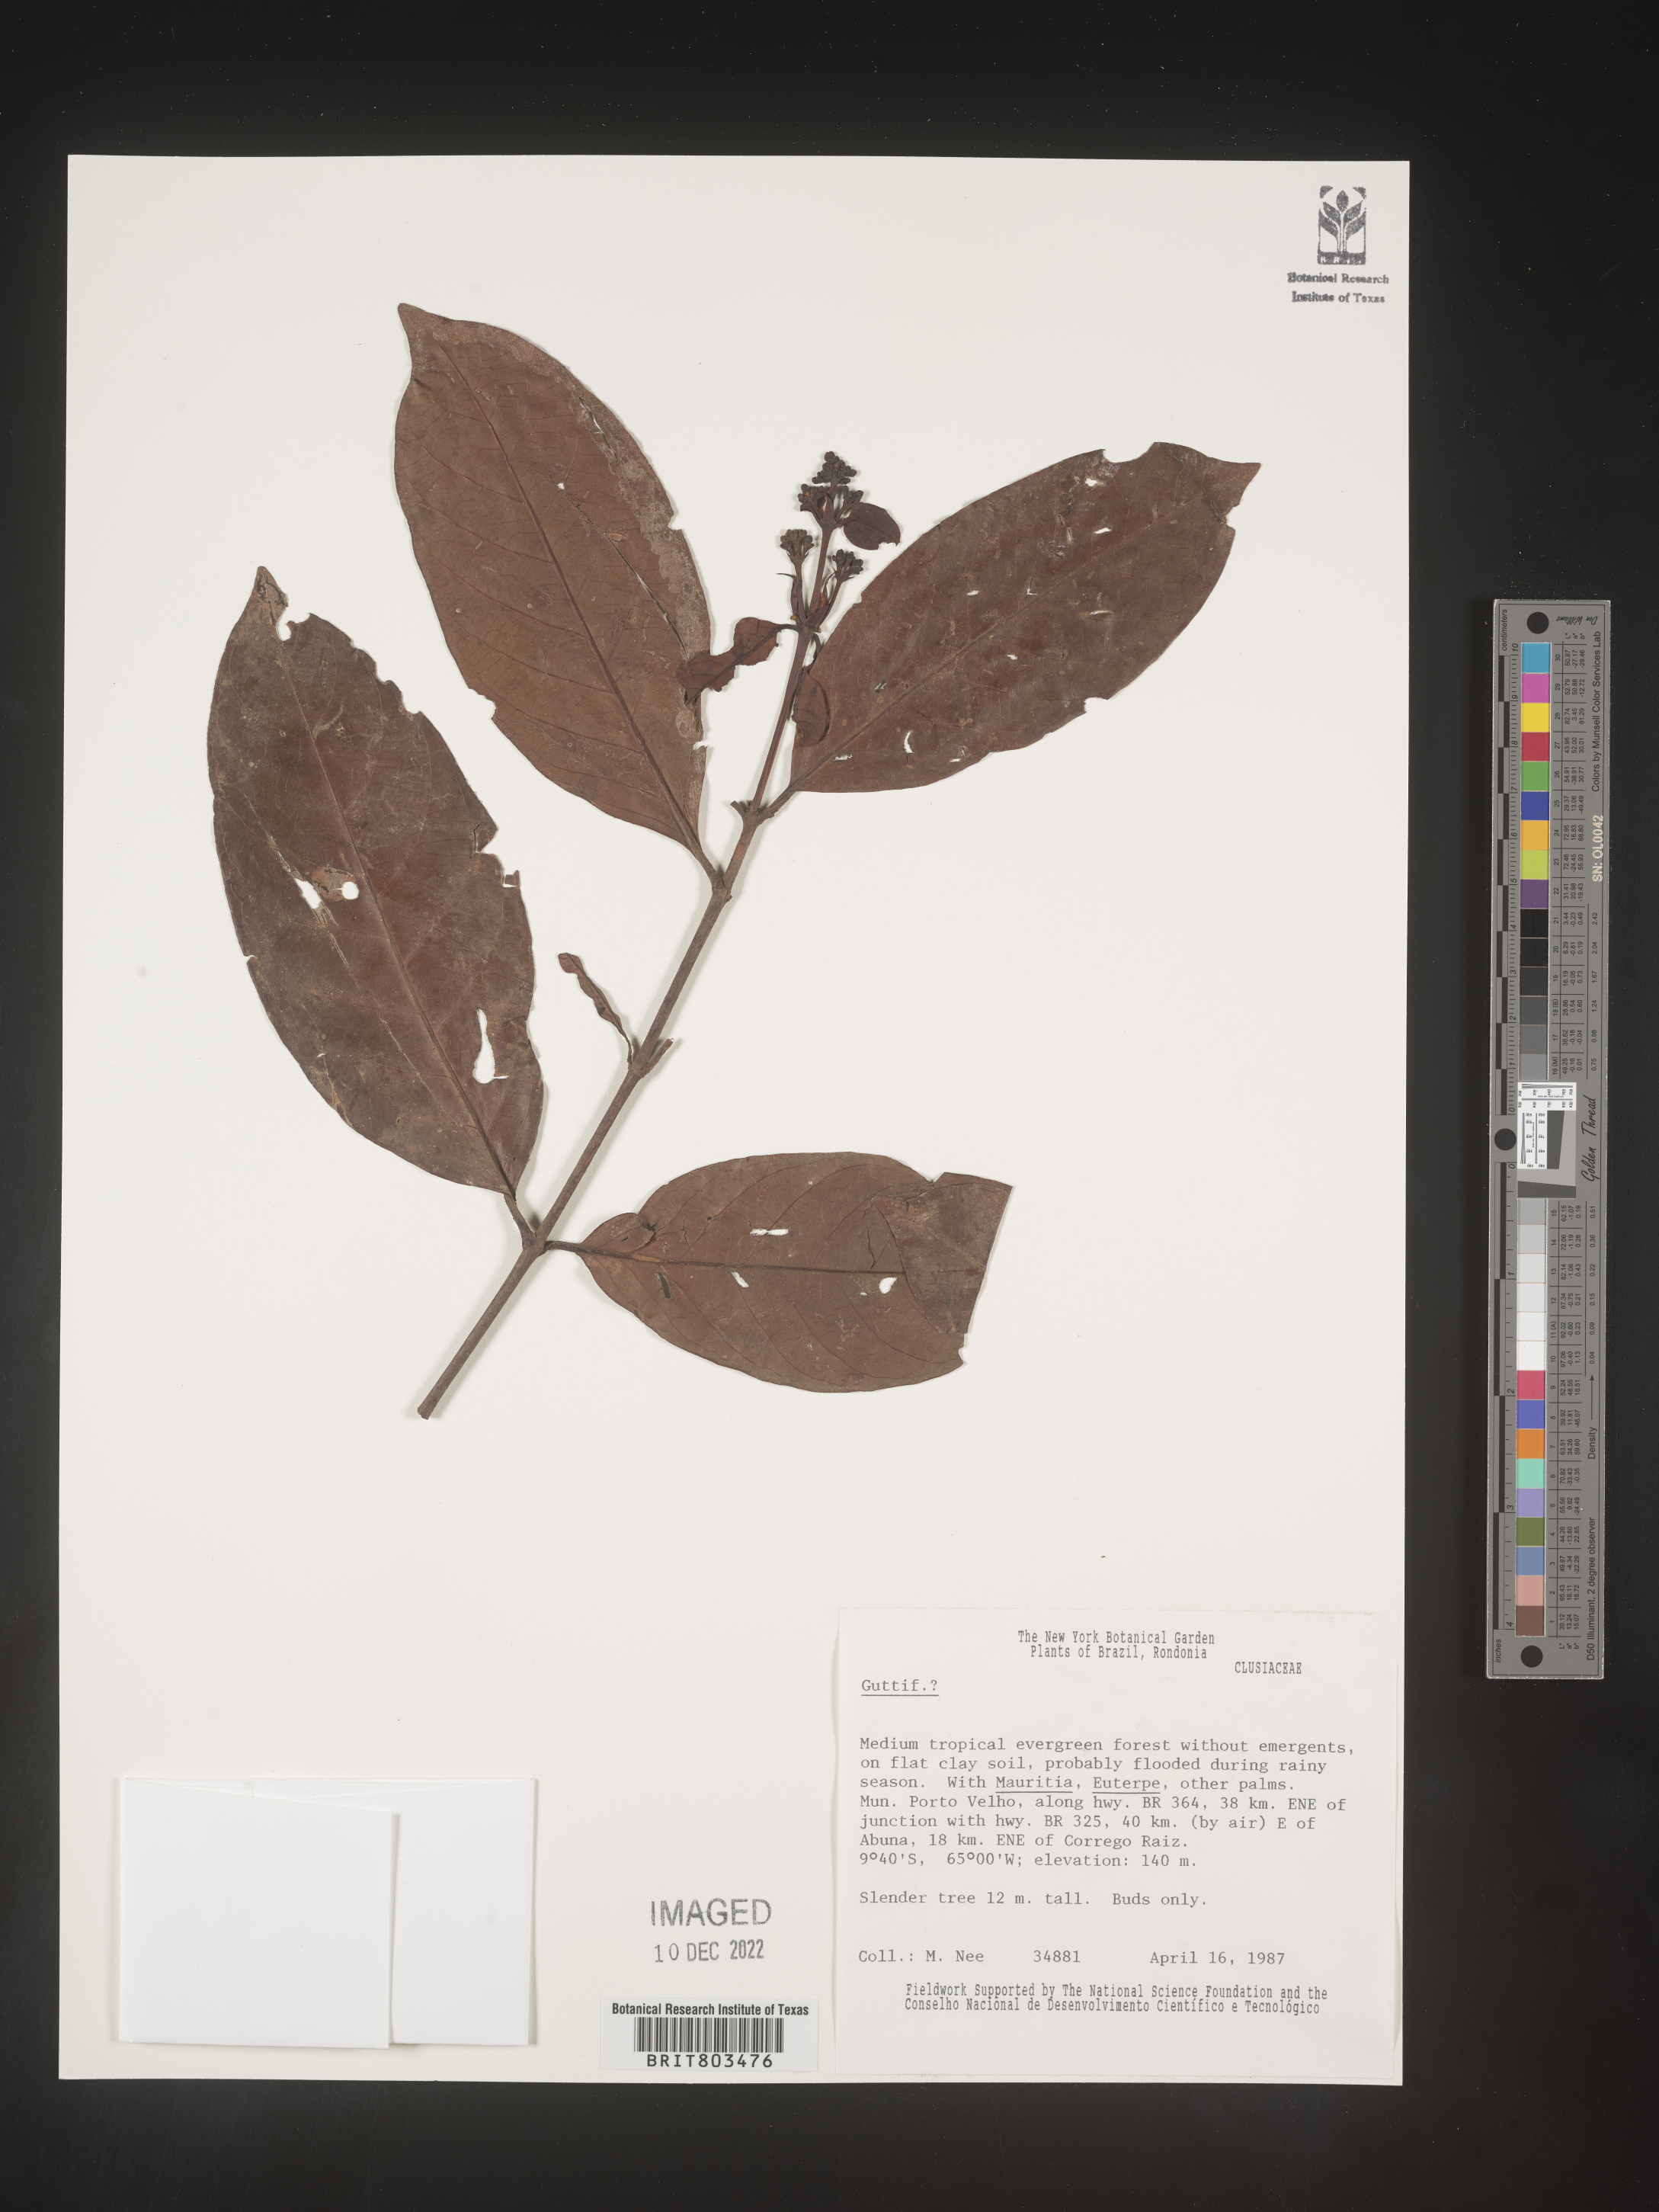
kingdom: Plantae
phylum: Tracheophyta
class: Magnoliopsida
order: Malpighiales
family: Clusiaceae
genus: Tovomita
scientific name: Tovomita
